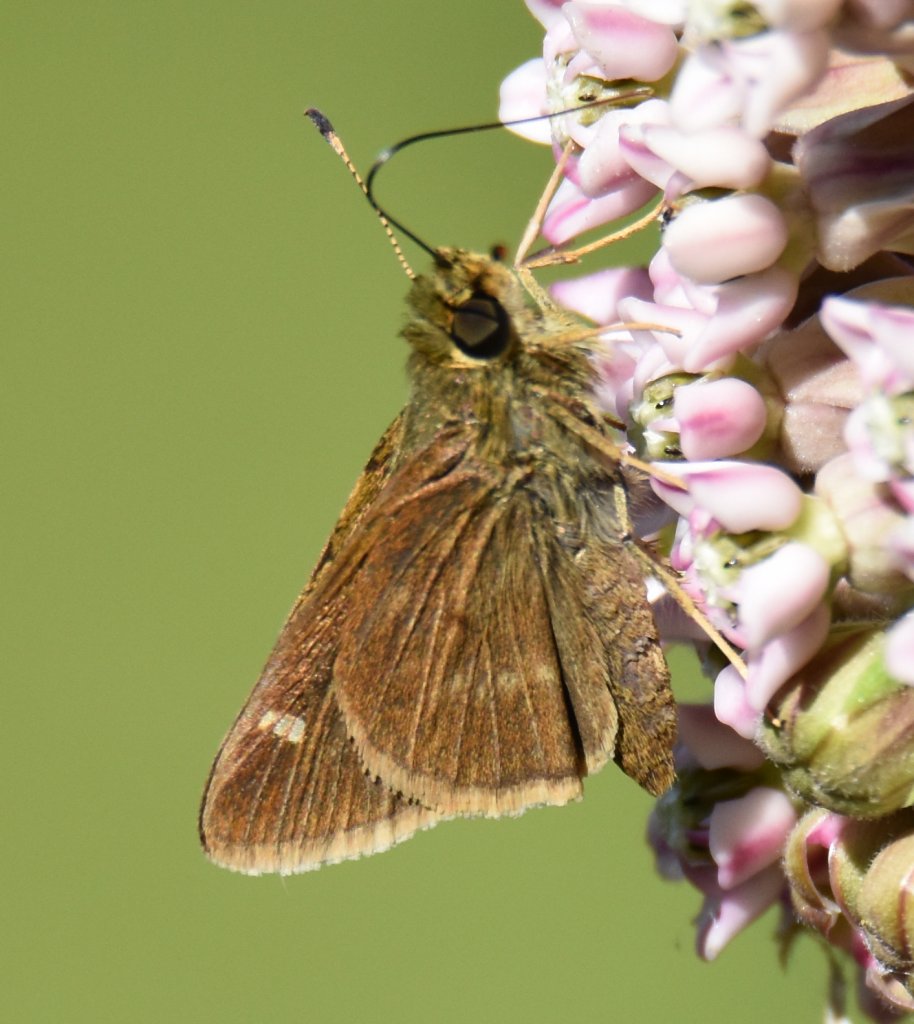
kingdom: Animalia
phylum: Arthropoda
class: Insecta
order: Lepidoptera
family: Hesperiidae
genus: Polites
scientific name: Polites
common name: Crossline Skipper
